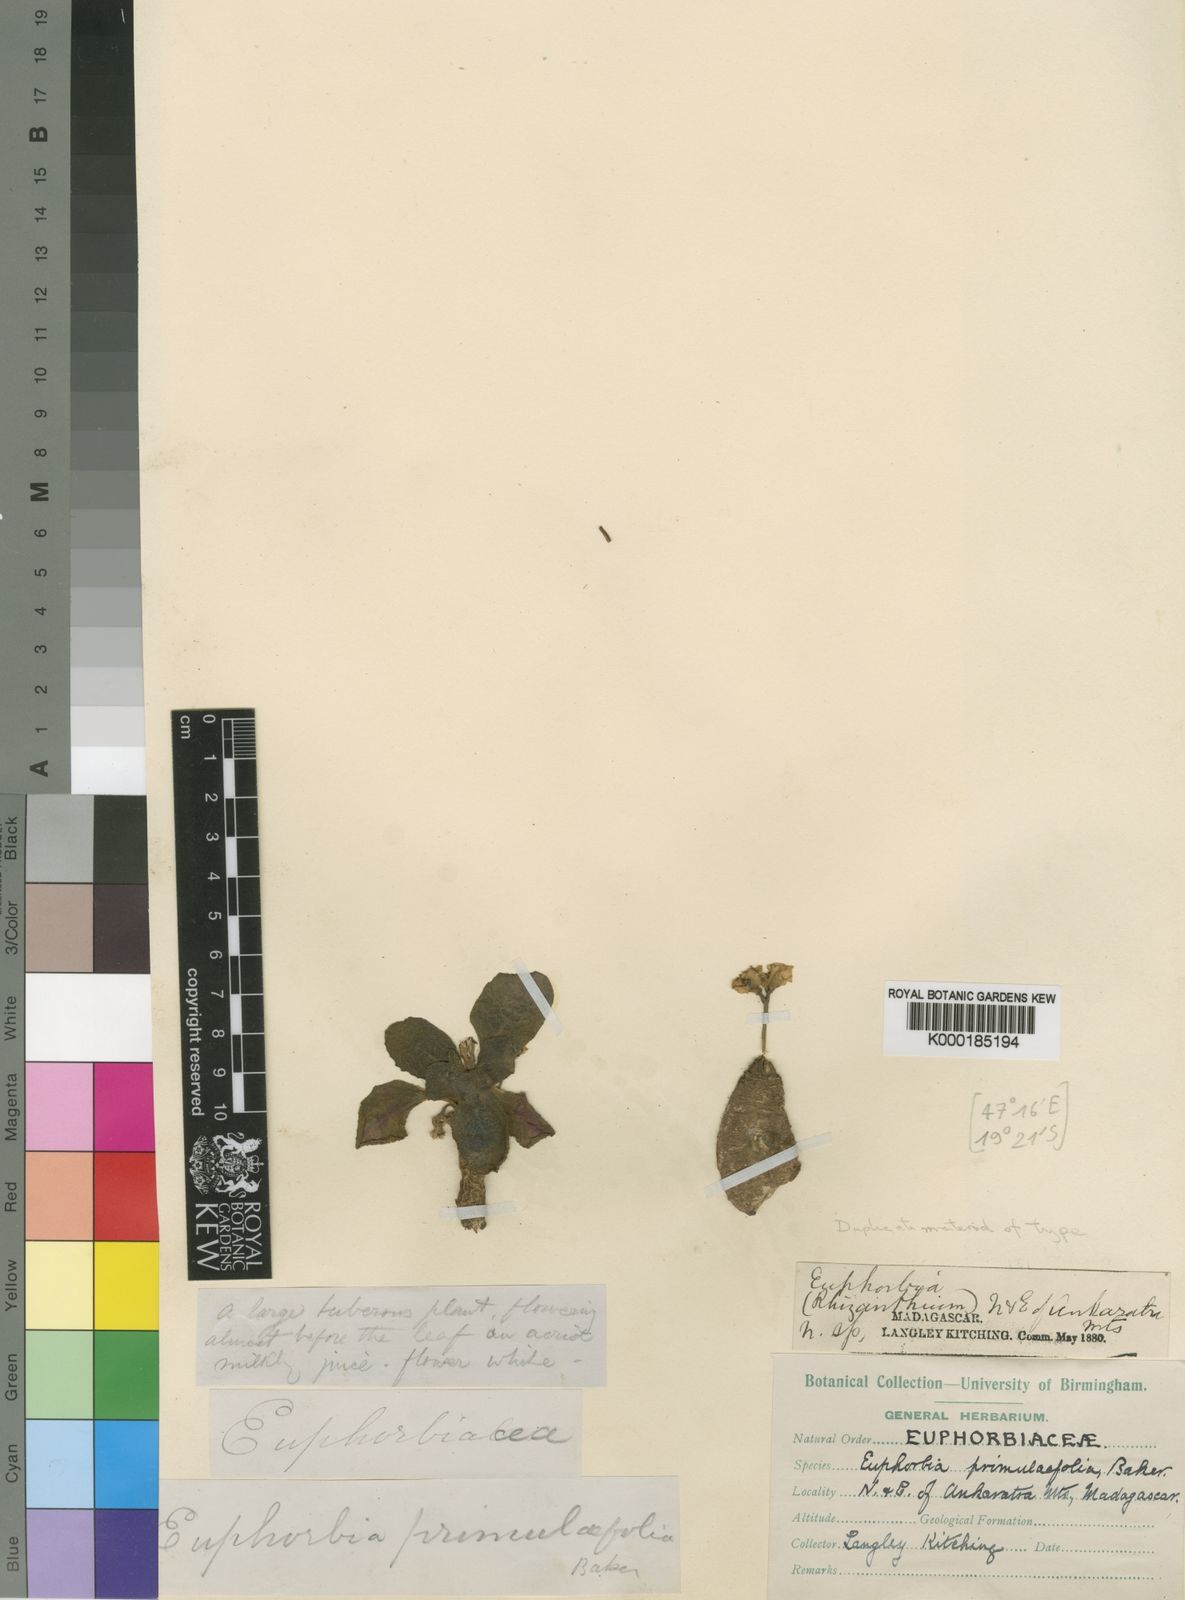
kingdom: Plantae
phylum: Tracheophyta
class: Magnoliopsida
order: Malpighiales
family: Euphorbiaceae
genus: Euphorbia
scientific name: Euphorbia primulifolia
